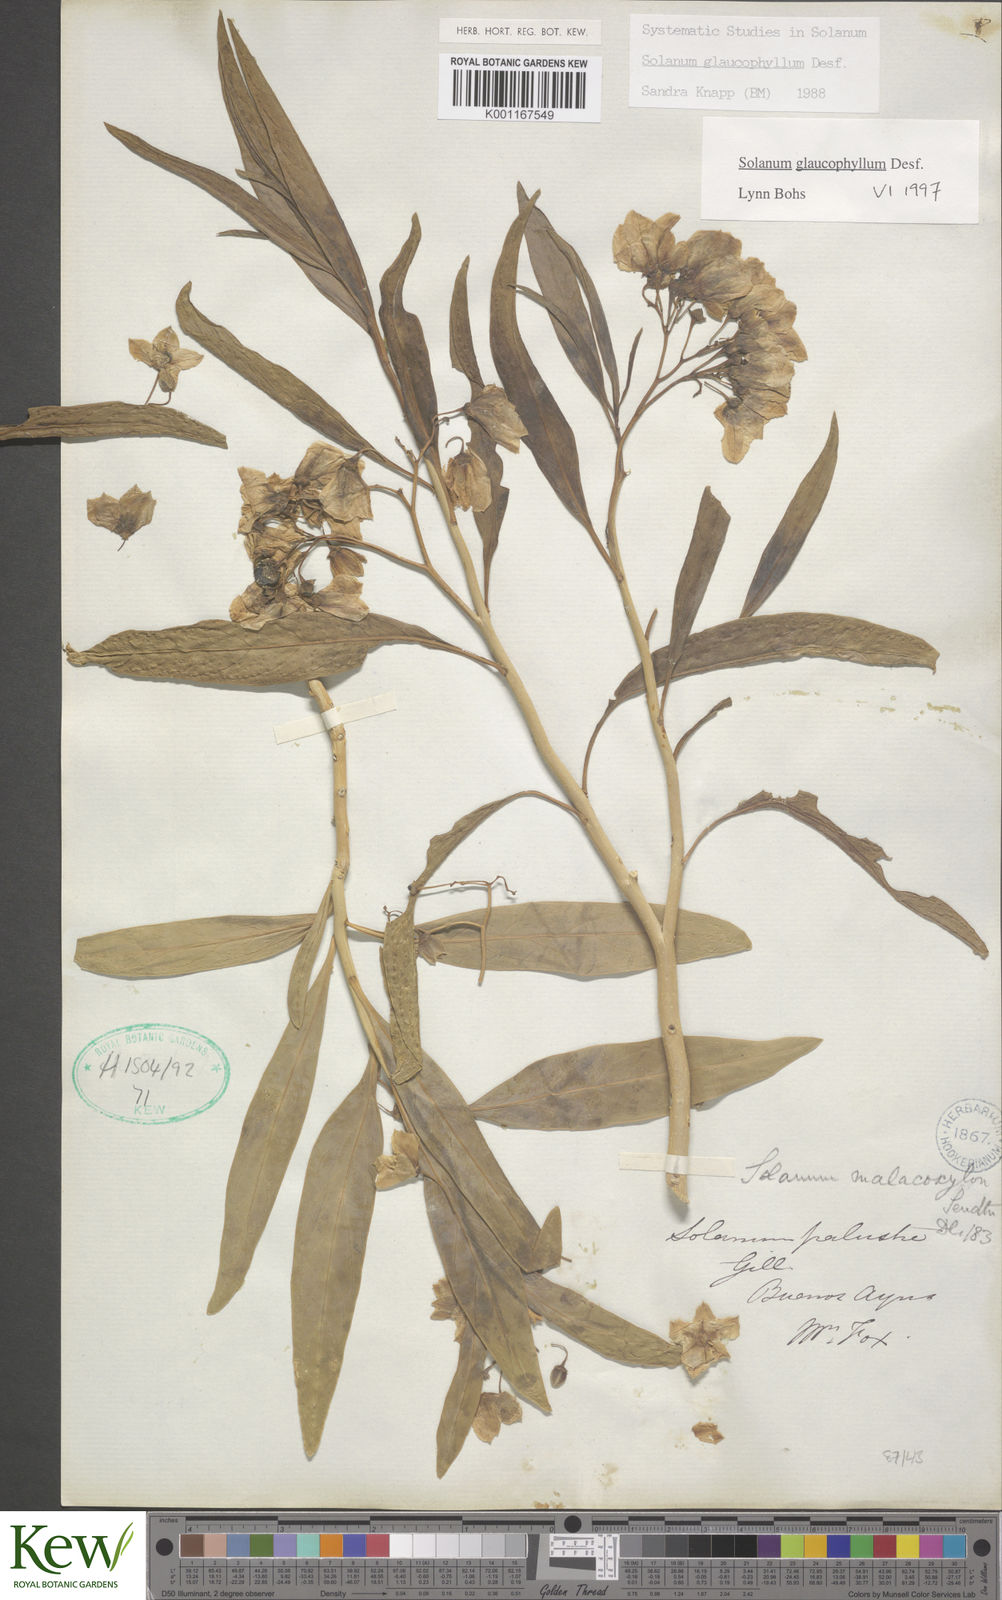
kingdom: Plantae
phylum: Tracheophyta
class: Magnoliopsida
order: Solanales
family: Solanaceae
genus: Solanum
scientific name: Solanum glaucophyllum
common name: Waxyleaf nightshade
